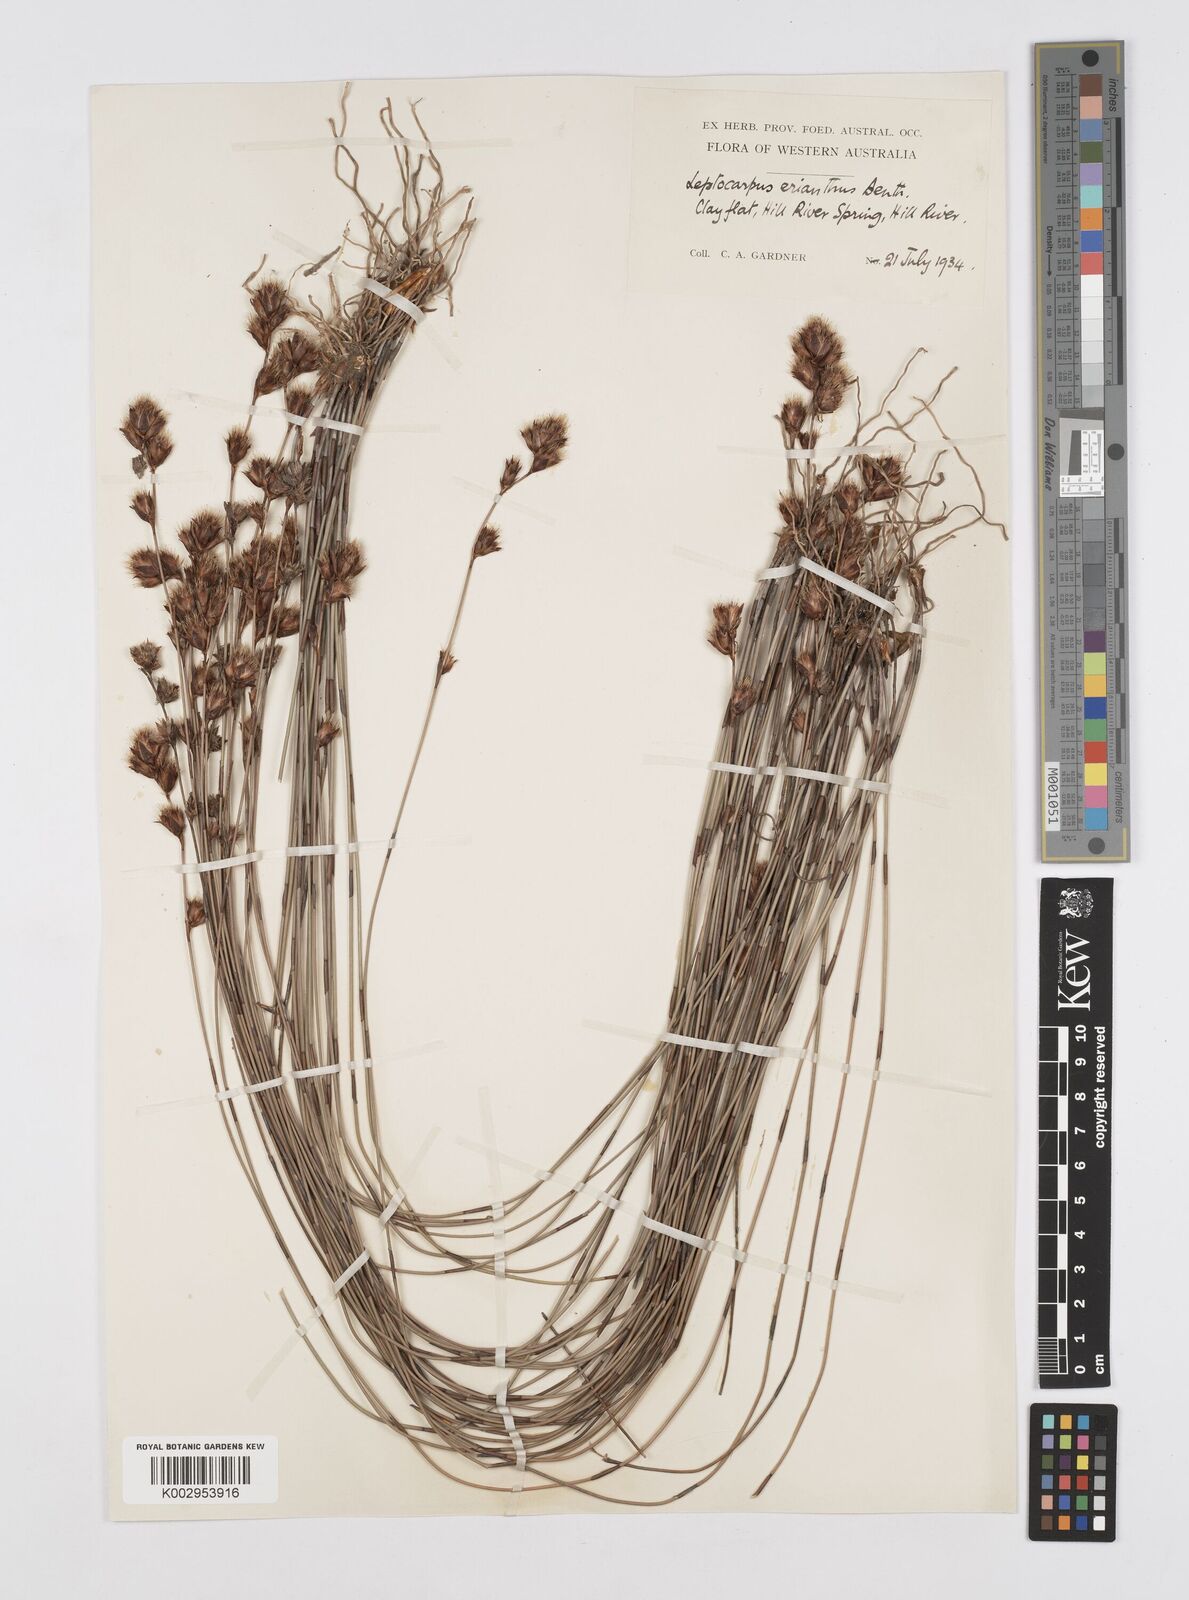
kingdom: Plantae
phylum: Tracheophyta
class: Liliopsida
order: Poales
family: Restionaceae
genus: Chaetanthus
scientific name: Chaetanthus aristatus
